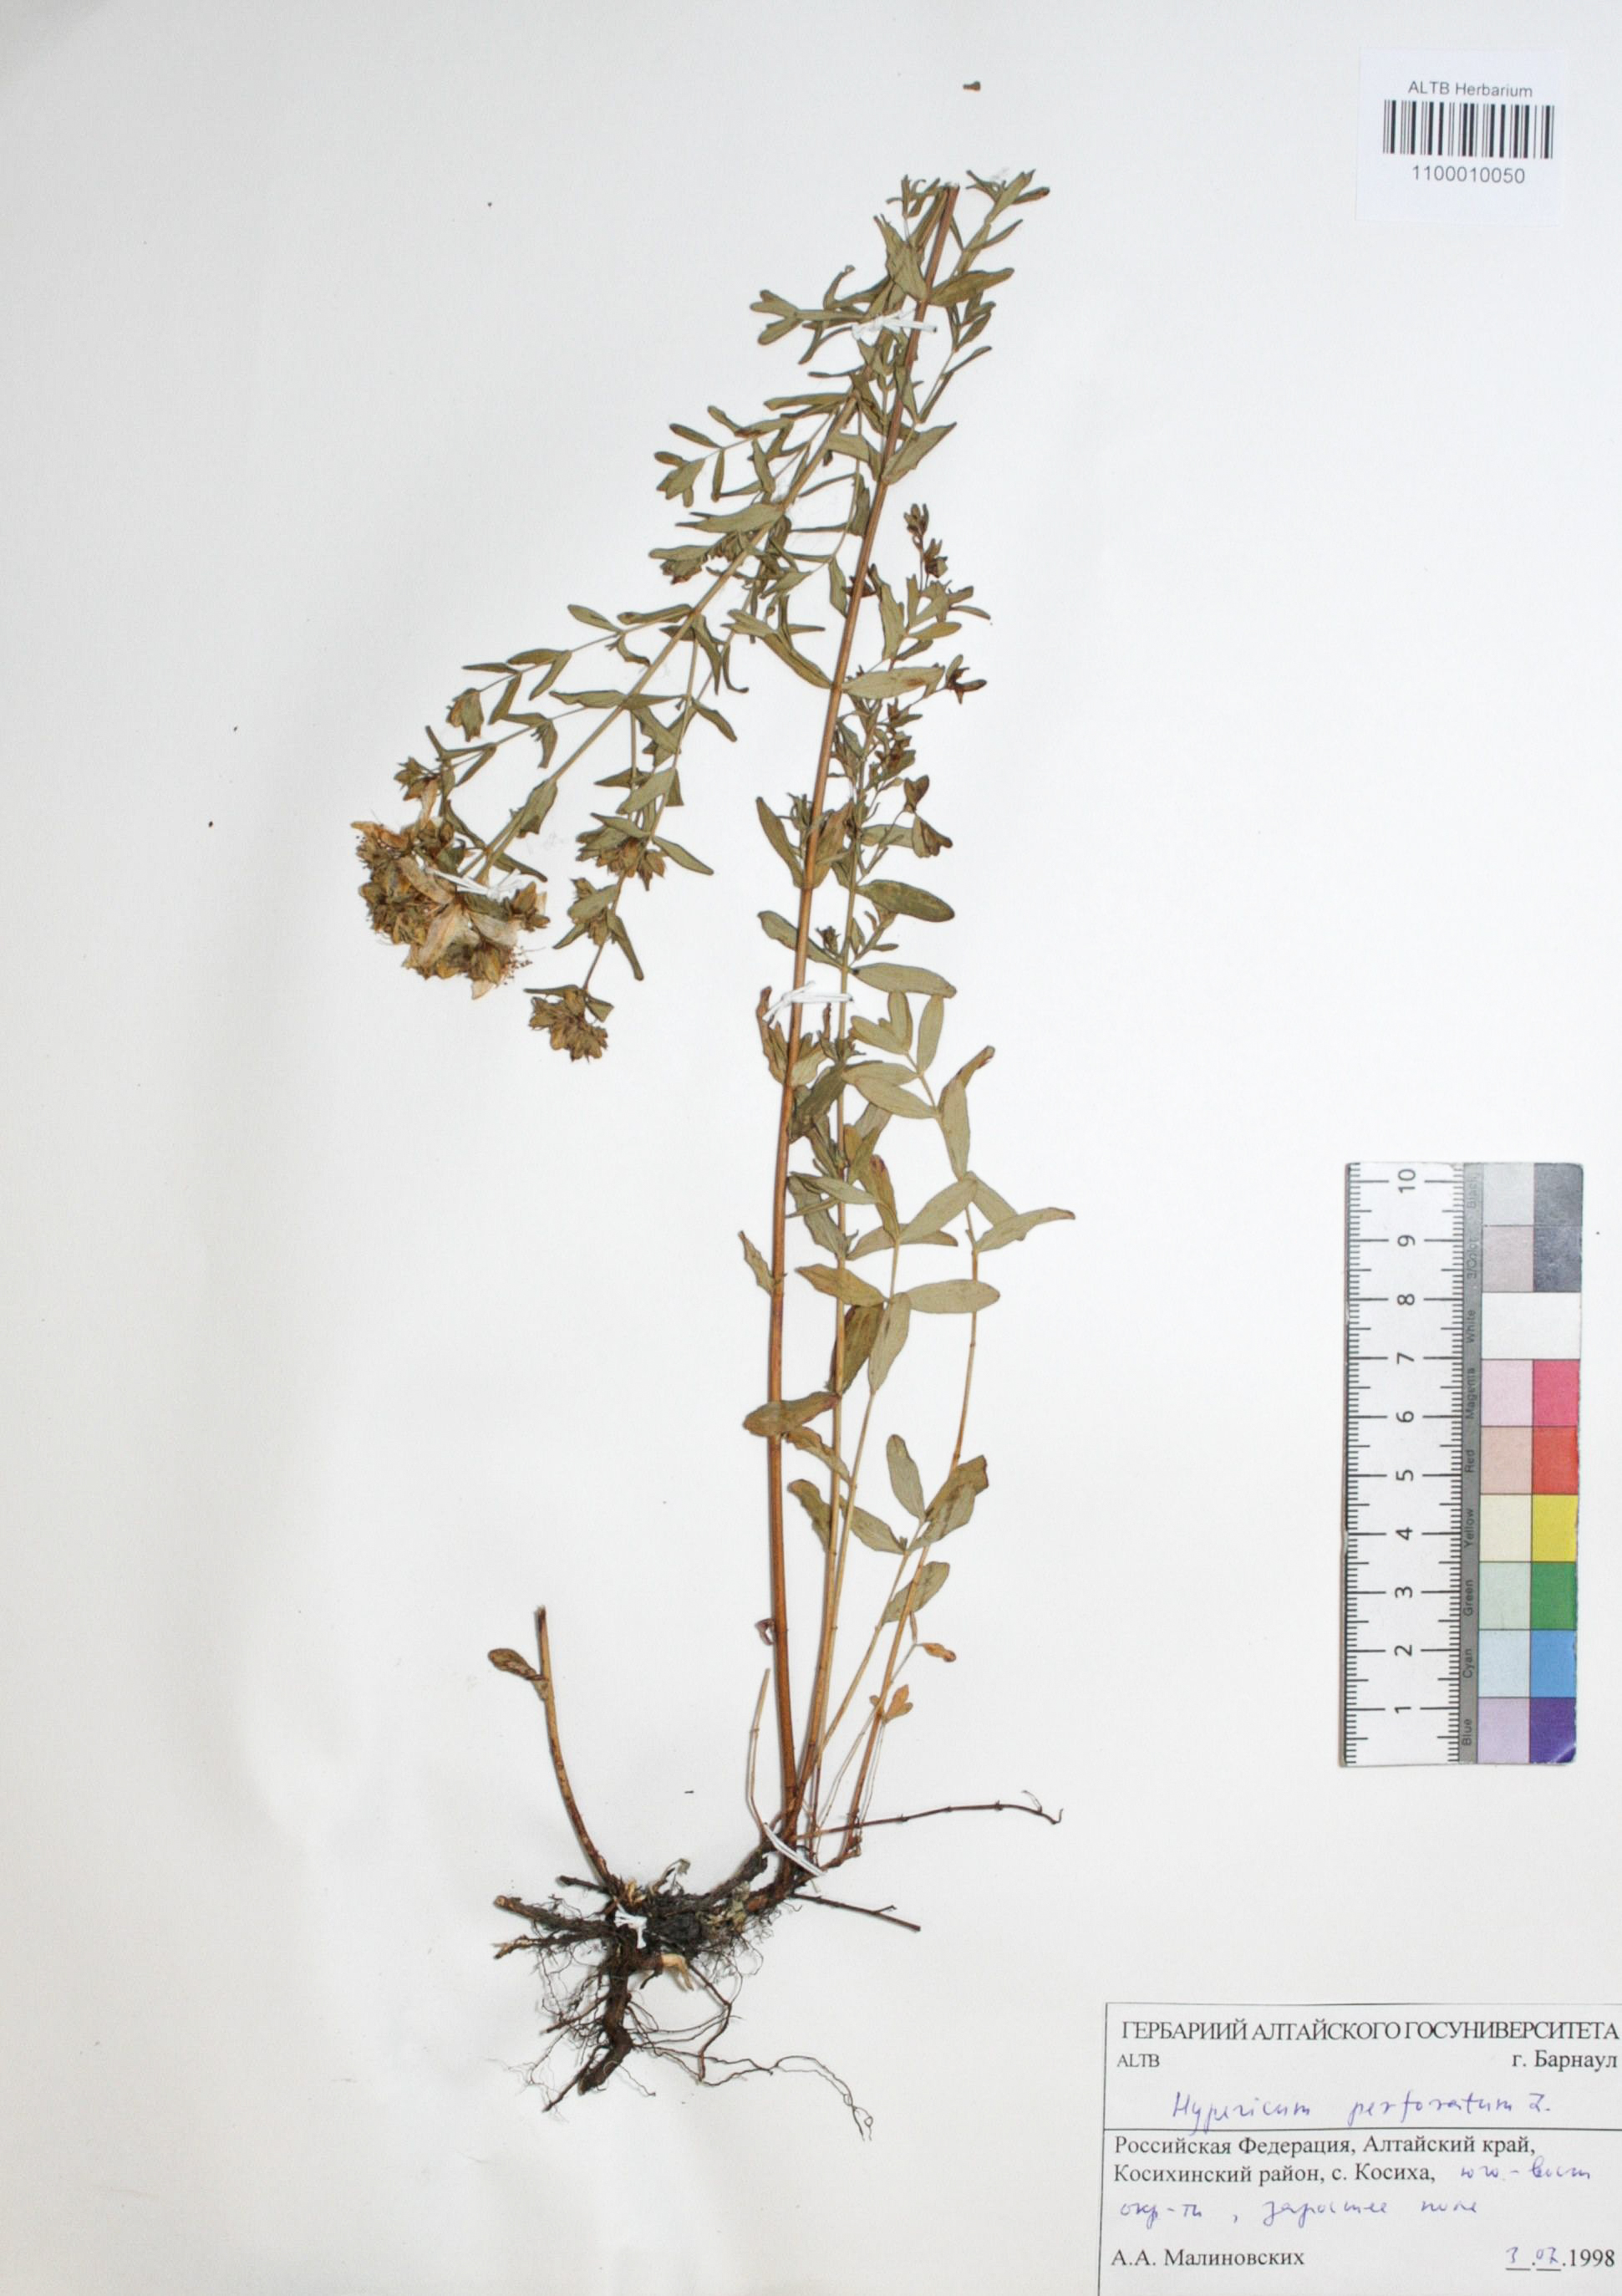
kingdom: Plantae
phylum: Tracheophyta
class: Magnoliopsida
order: Malpighiales
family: Hypericaceae
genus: Hypericum
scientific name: Hypericum perforatum
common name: Common st. johnswort
